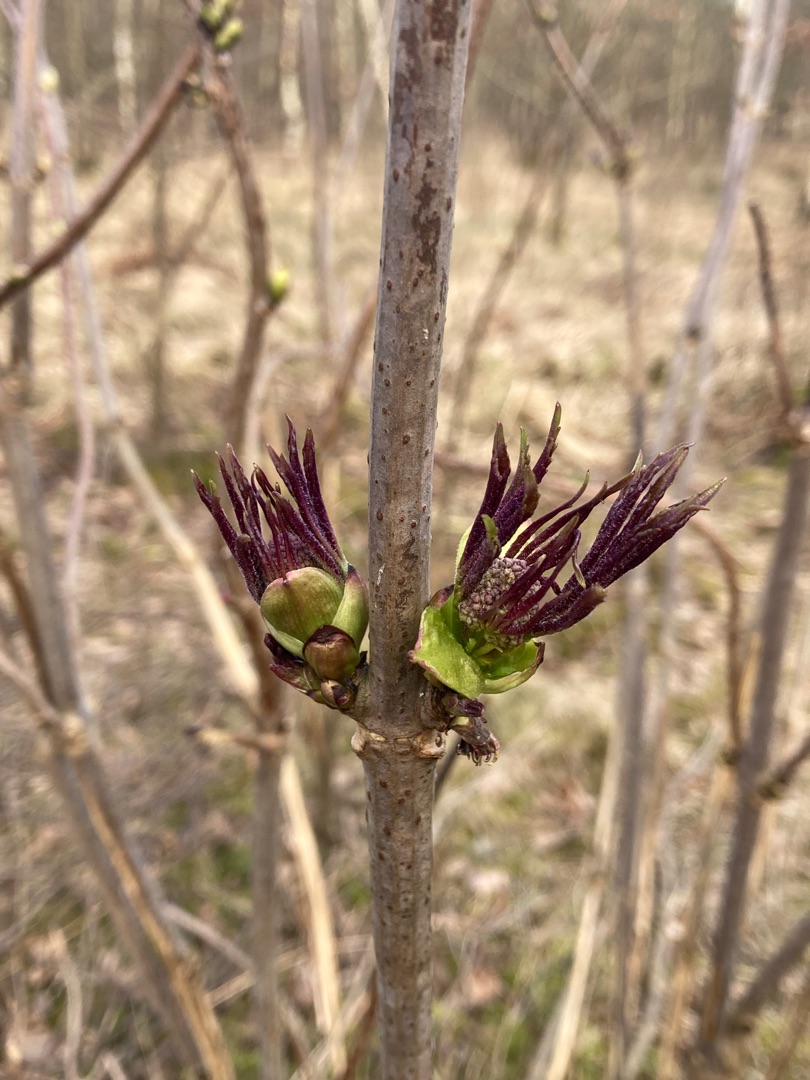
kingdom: Plantae
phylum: Tracheophyta
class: Magnoliopsida
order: Dipsacales
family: Viburnaceae
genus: Sambucus
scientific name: Sambucus racemosa
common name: Drue-hyld
